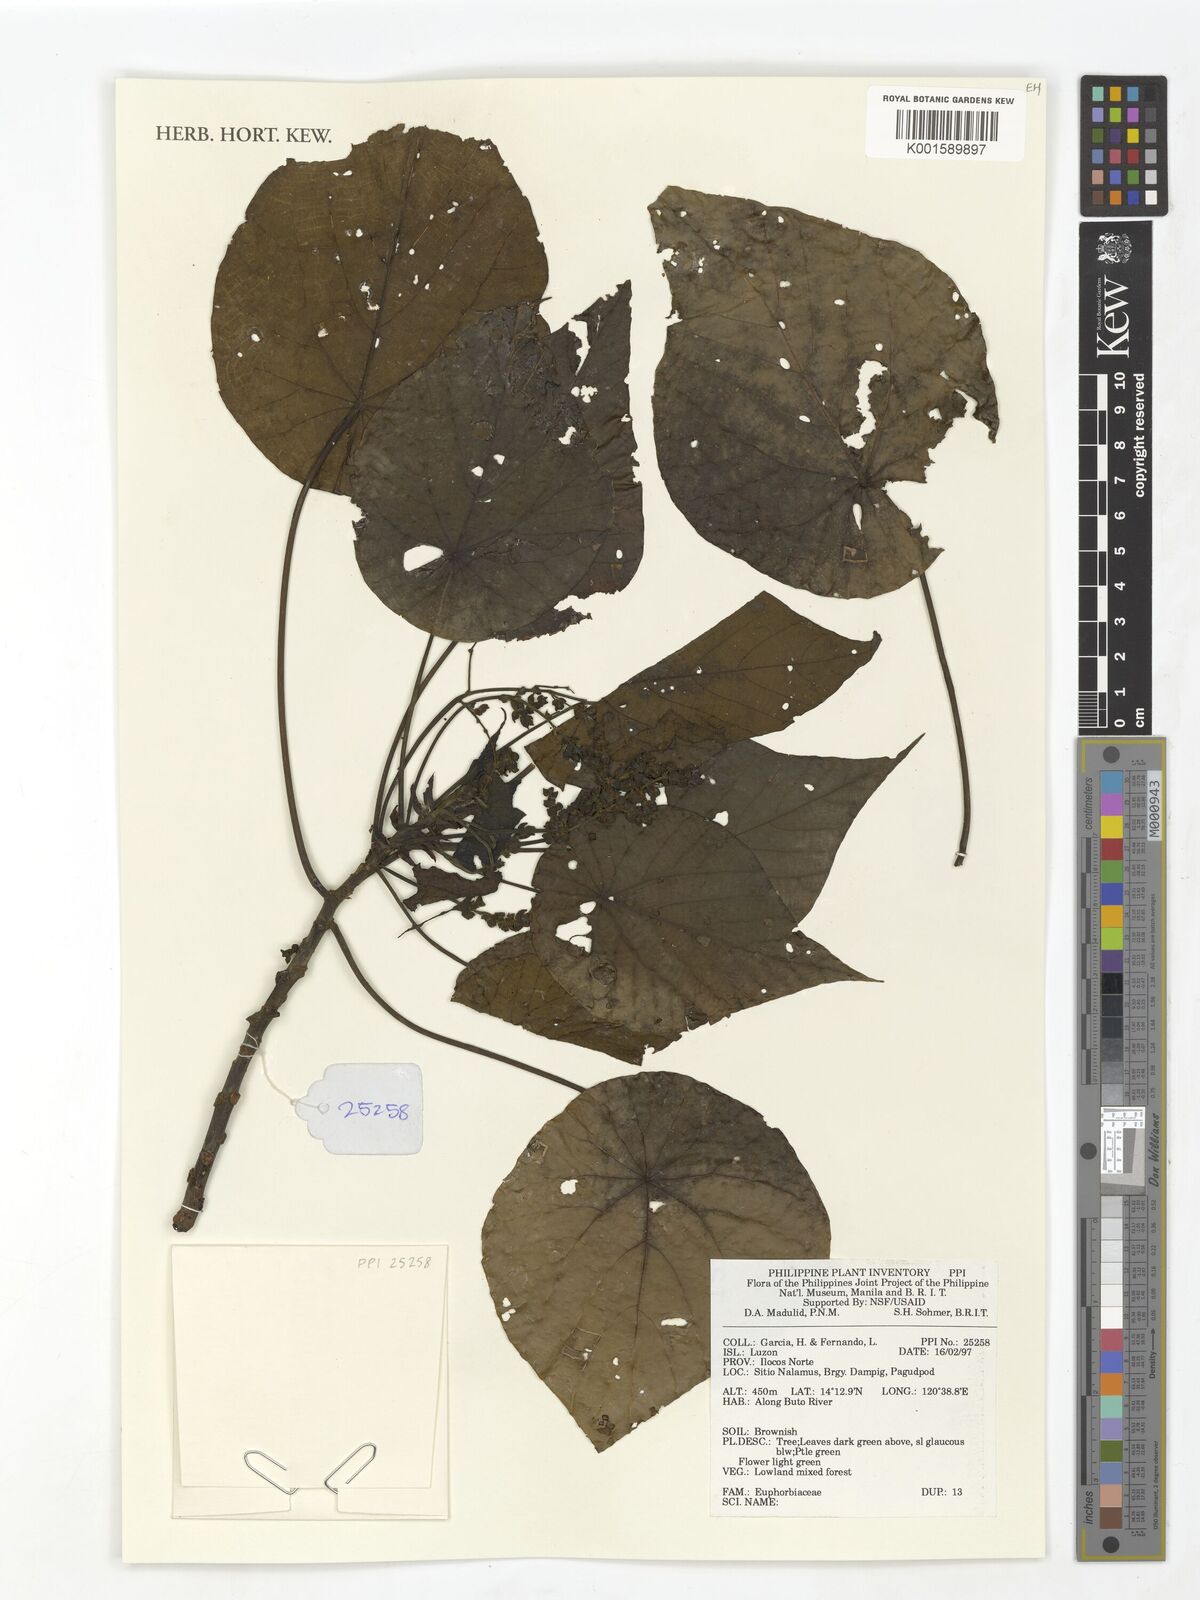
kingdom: Plantae
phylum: Tracheophyta
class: Magnoliopsida
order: Malpighiales
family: Euphorbiaceae
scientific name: Euphorbiaceae
